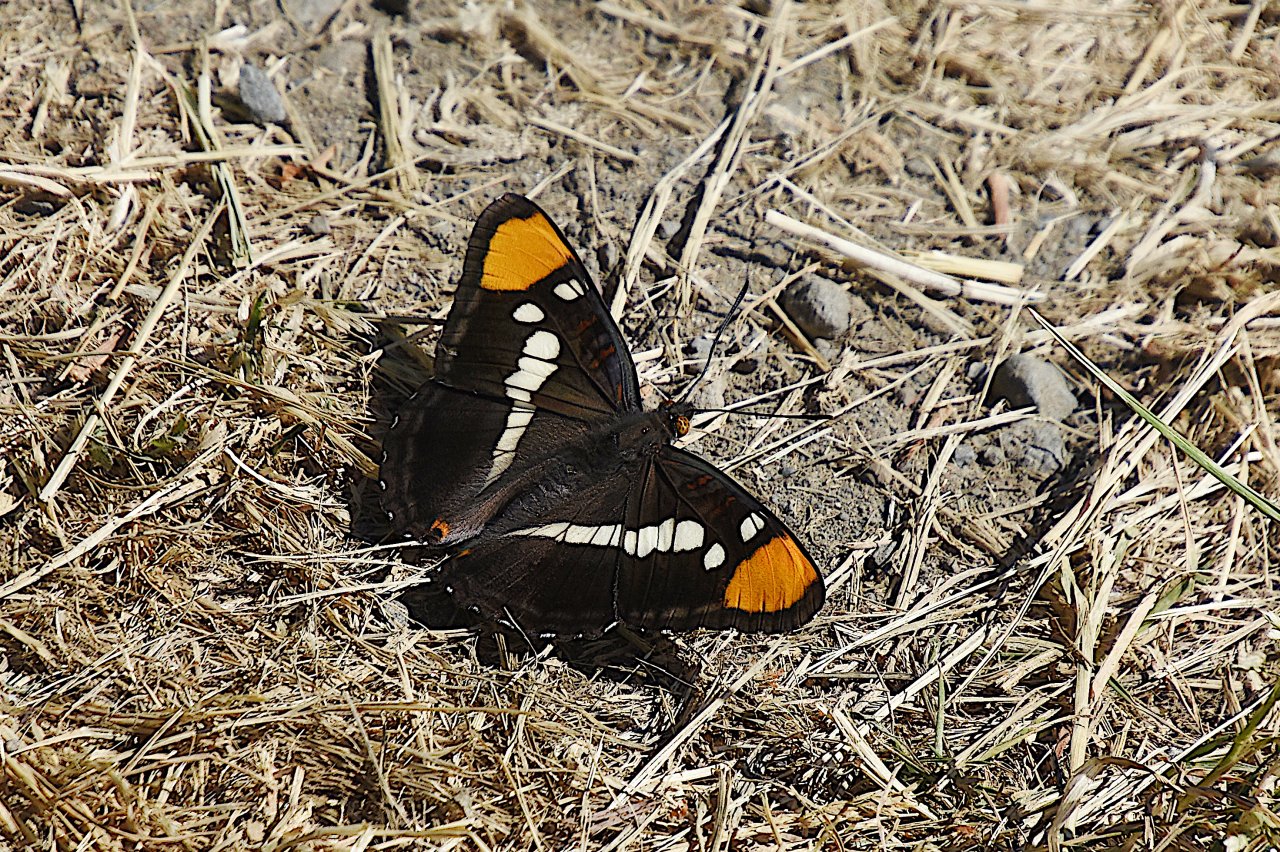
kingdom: Animalia
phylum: Arthropoda
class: Insecta
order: Lepidoptera
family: Nymphalidae
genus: Limenitis
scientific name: Limenitis bredowii
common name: California Sister
